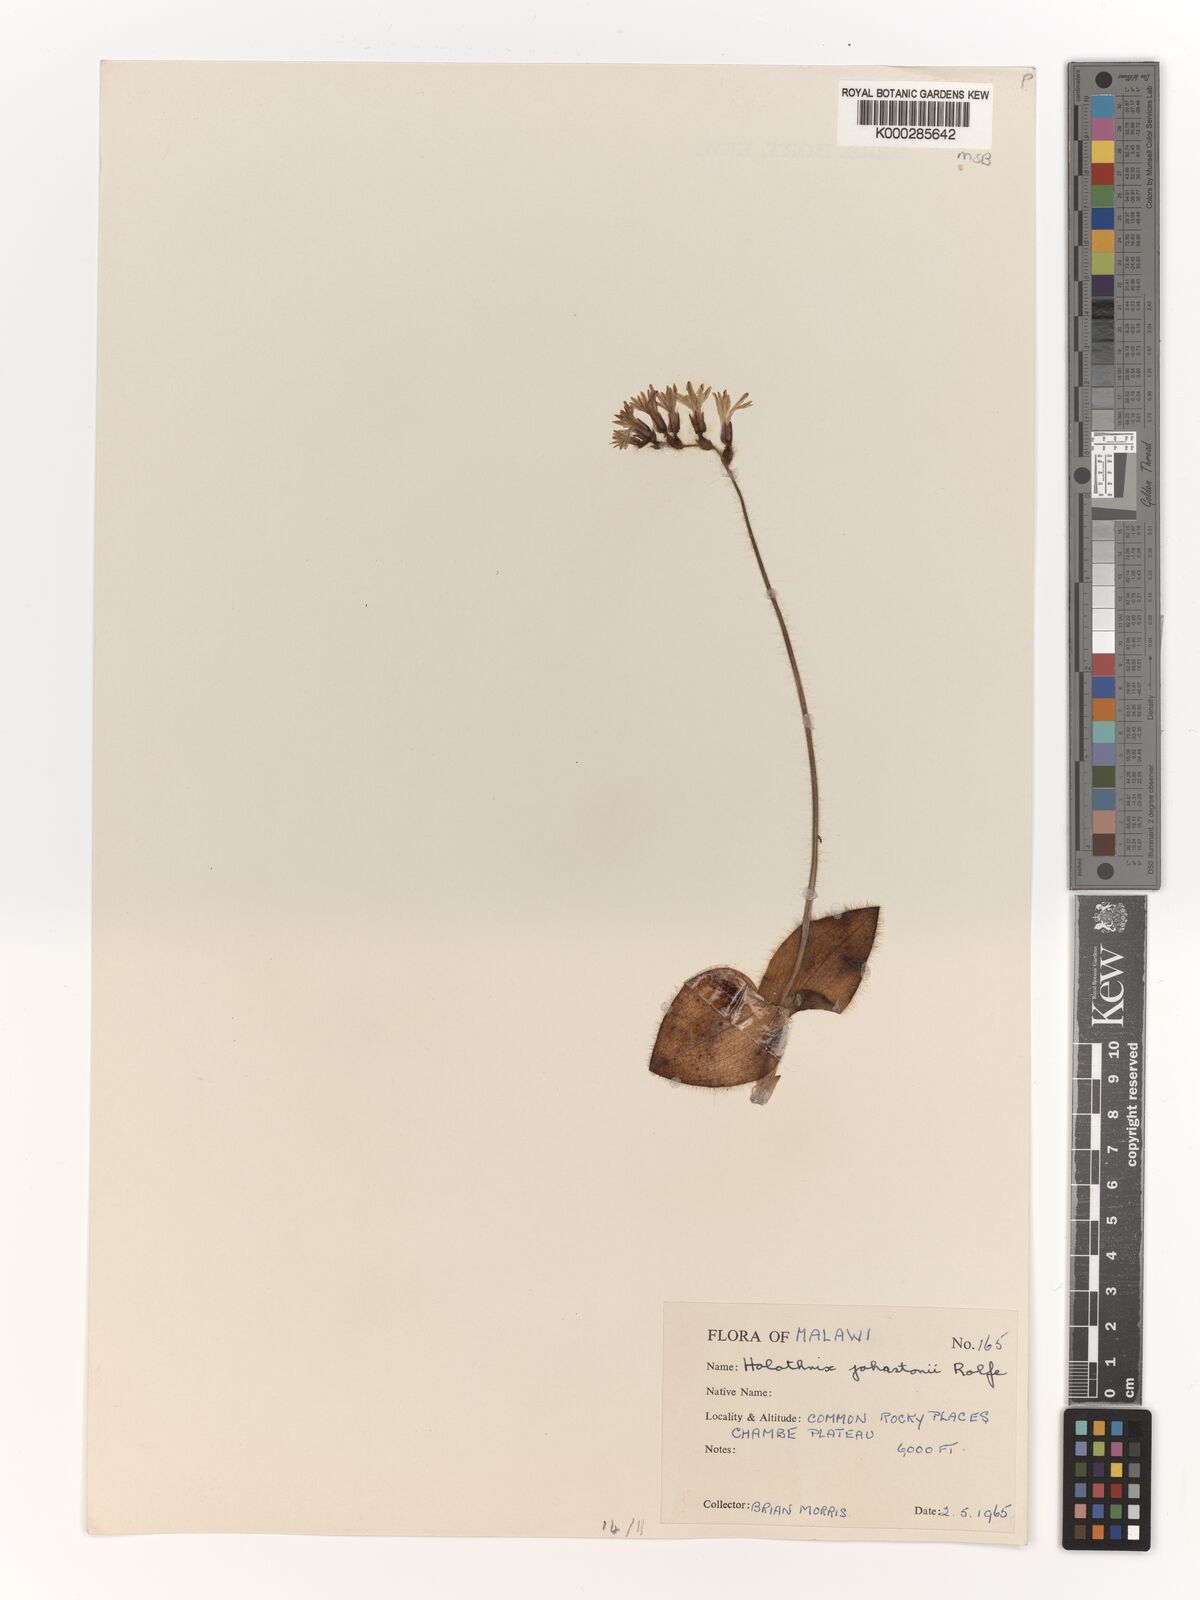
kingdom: Plantae
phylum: Tracheophyta
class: Liliopsida
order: Asparagales
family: Orchidaceae
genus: Holothrix
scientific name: Holothrix johnstonii
